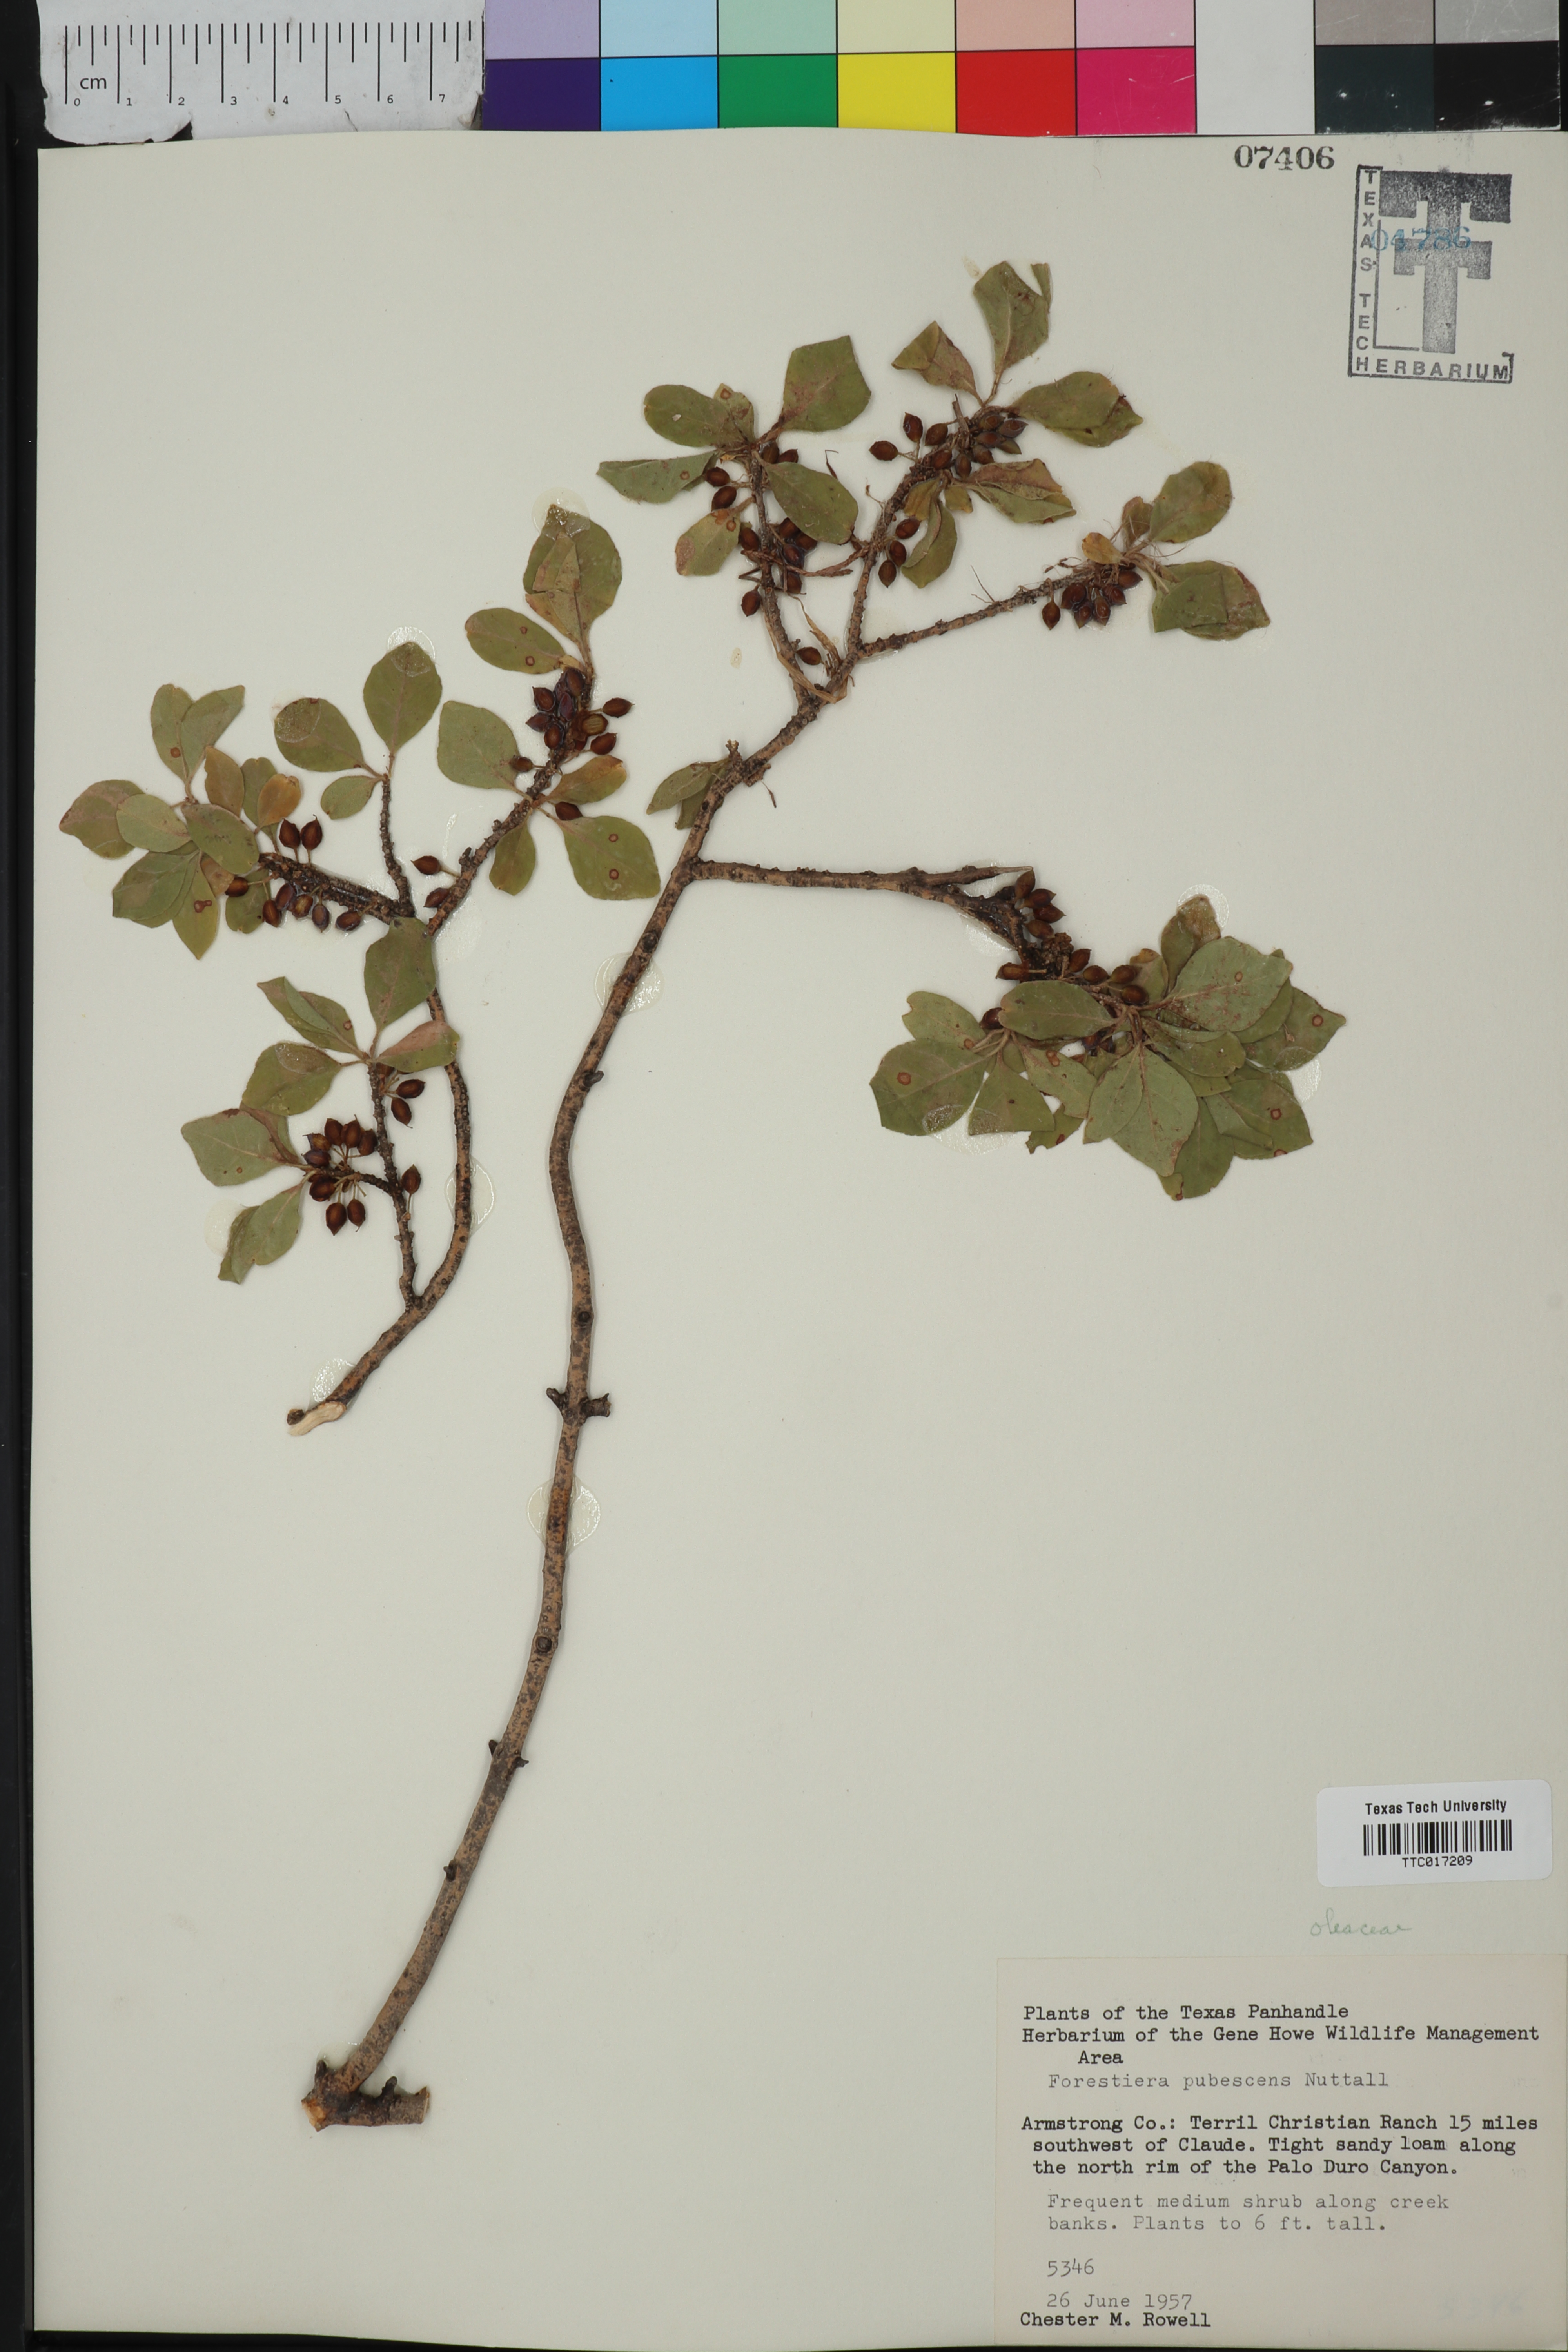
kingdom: Plantae
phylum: Tracheophyta
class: Magnoliopsida
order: Lamiales
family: Oleaceae
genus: Forestiera
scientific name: Forestiera pubescens
